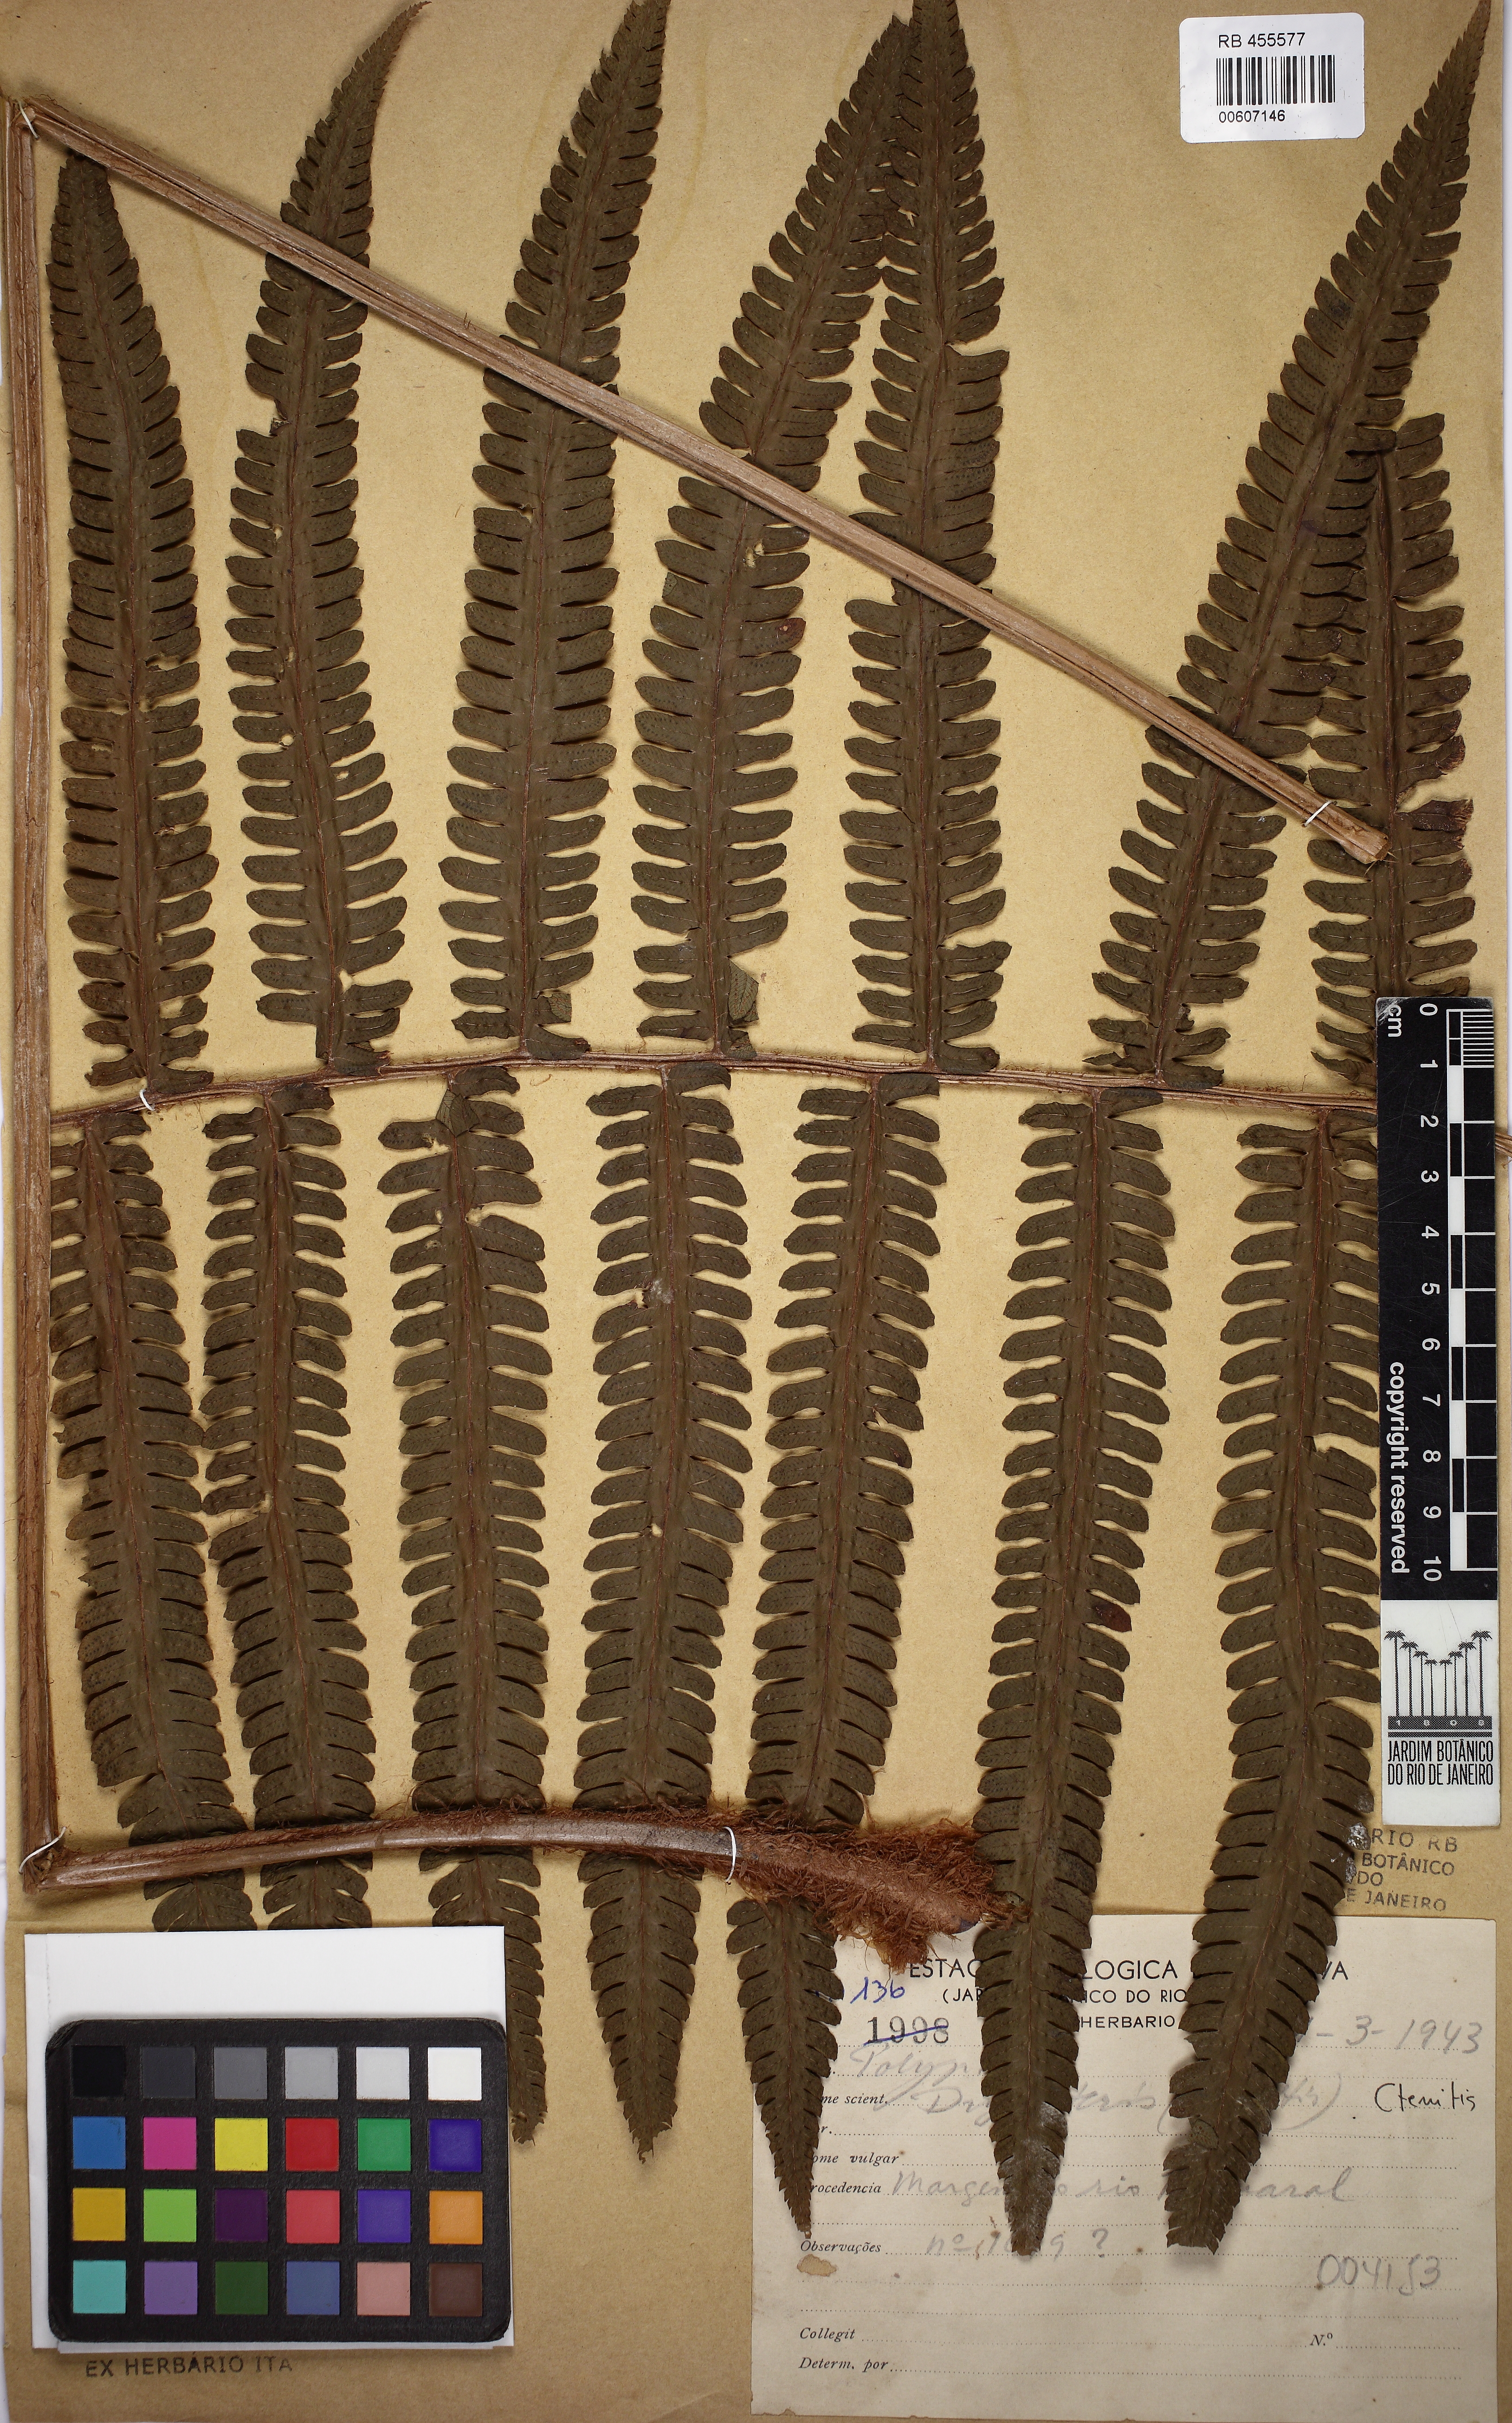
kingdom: Plantae
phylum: Tracheophyta
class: Polypodiopsida
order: Polypodiales
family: Dryopteridaceae
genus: Ctenitis
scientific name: Ctenitis submarginalis
